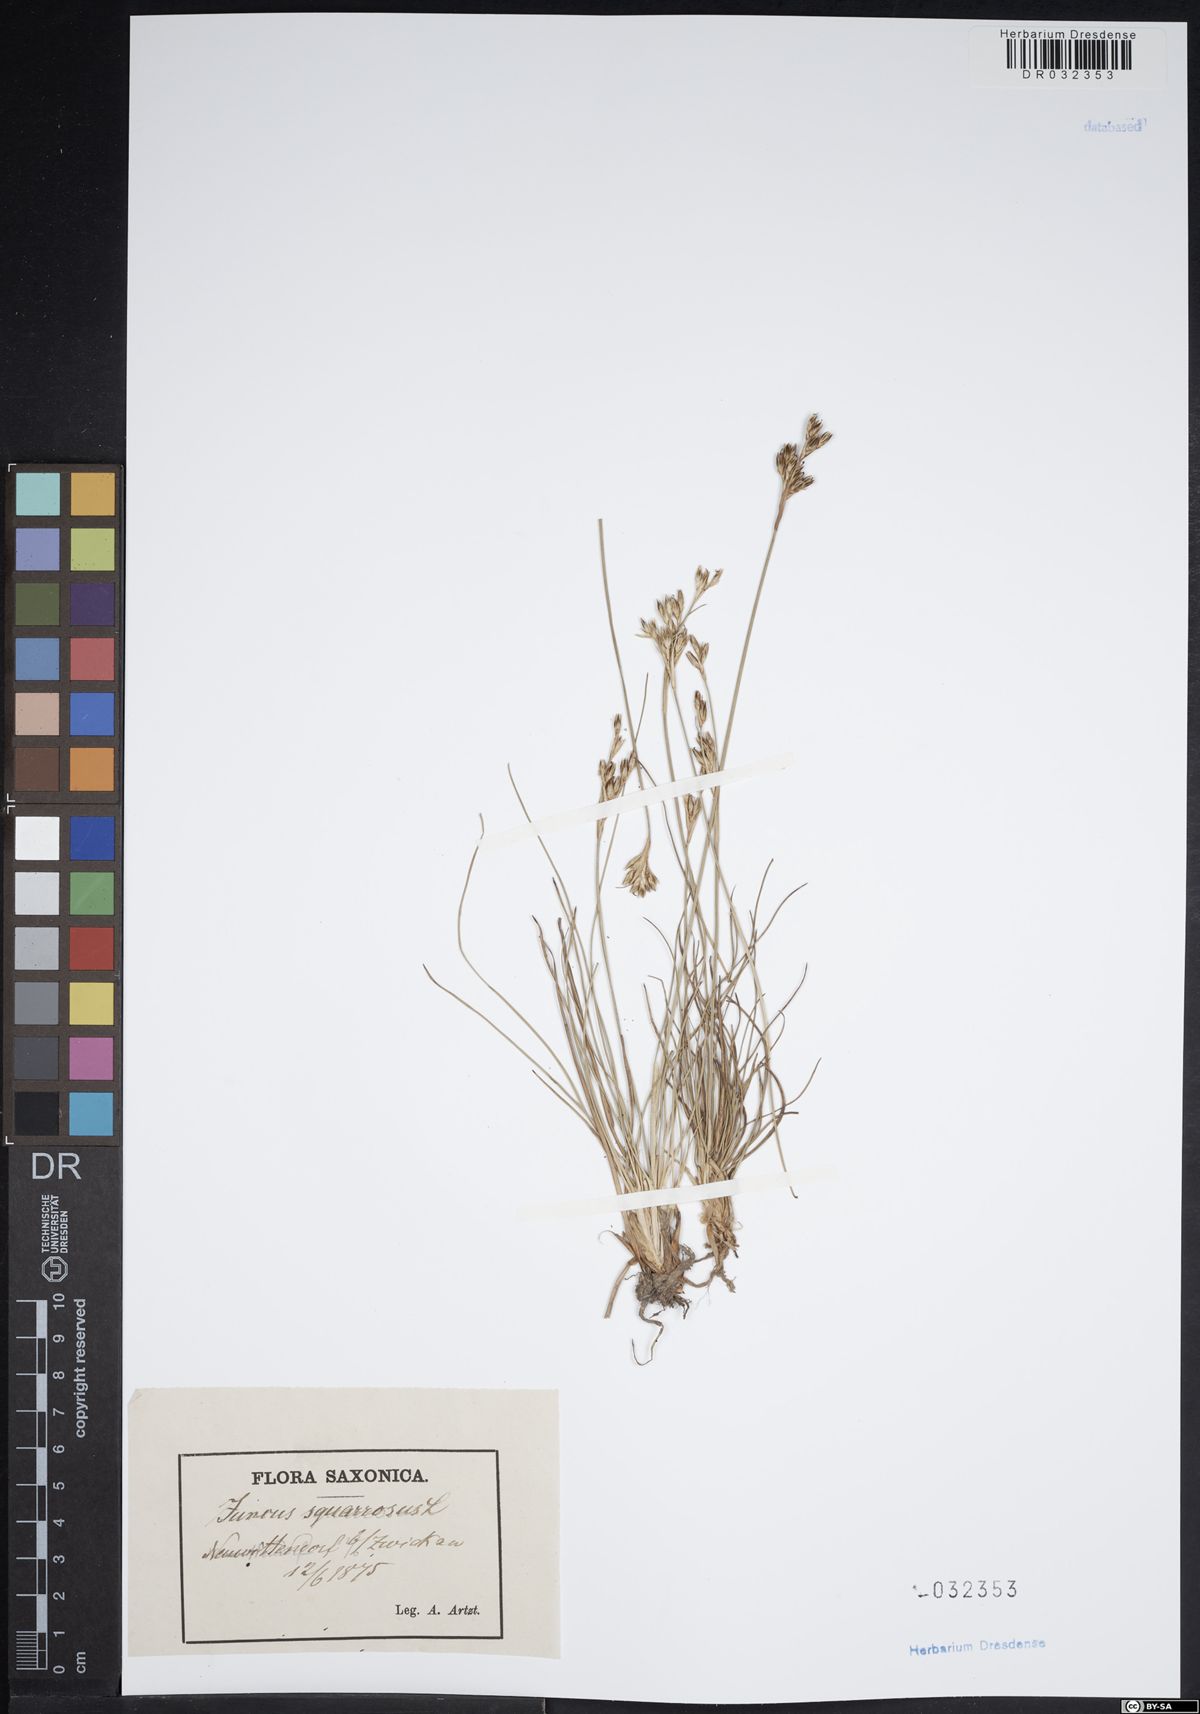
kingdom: Plantae
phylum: Tracheophyta
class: Liliopsida
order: Poales
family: Juncaceae
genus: Juncus
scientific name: Juncus squarrosus
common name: Heath rush
